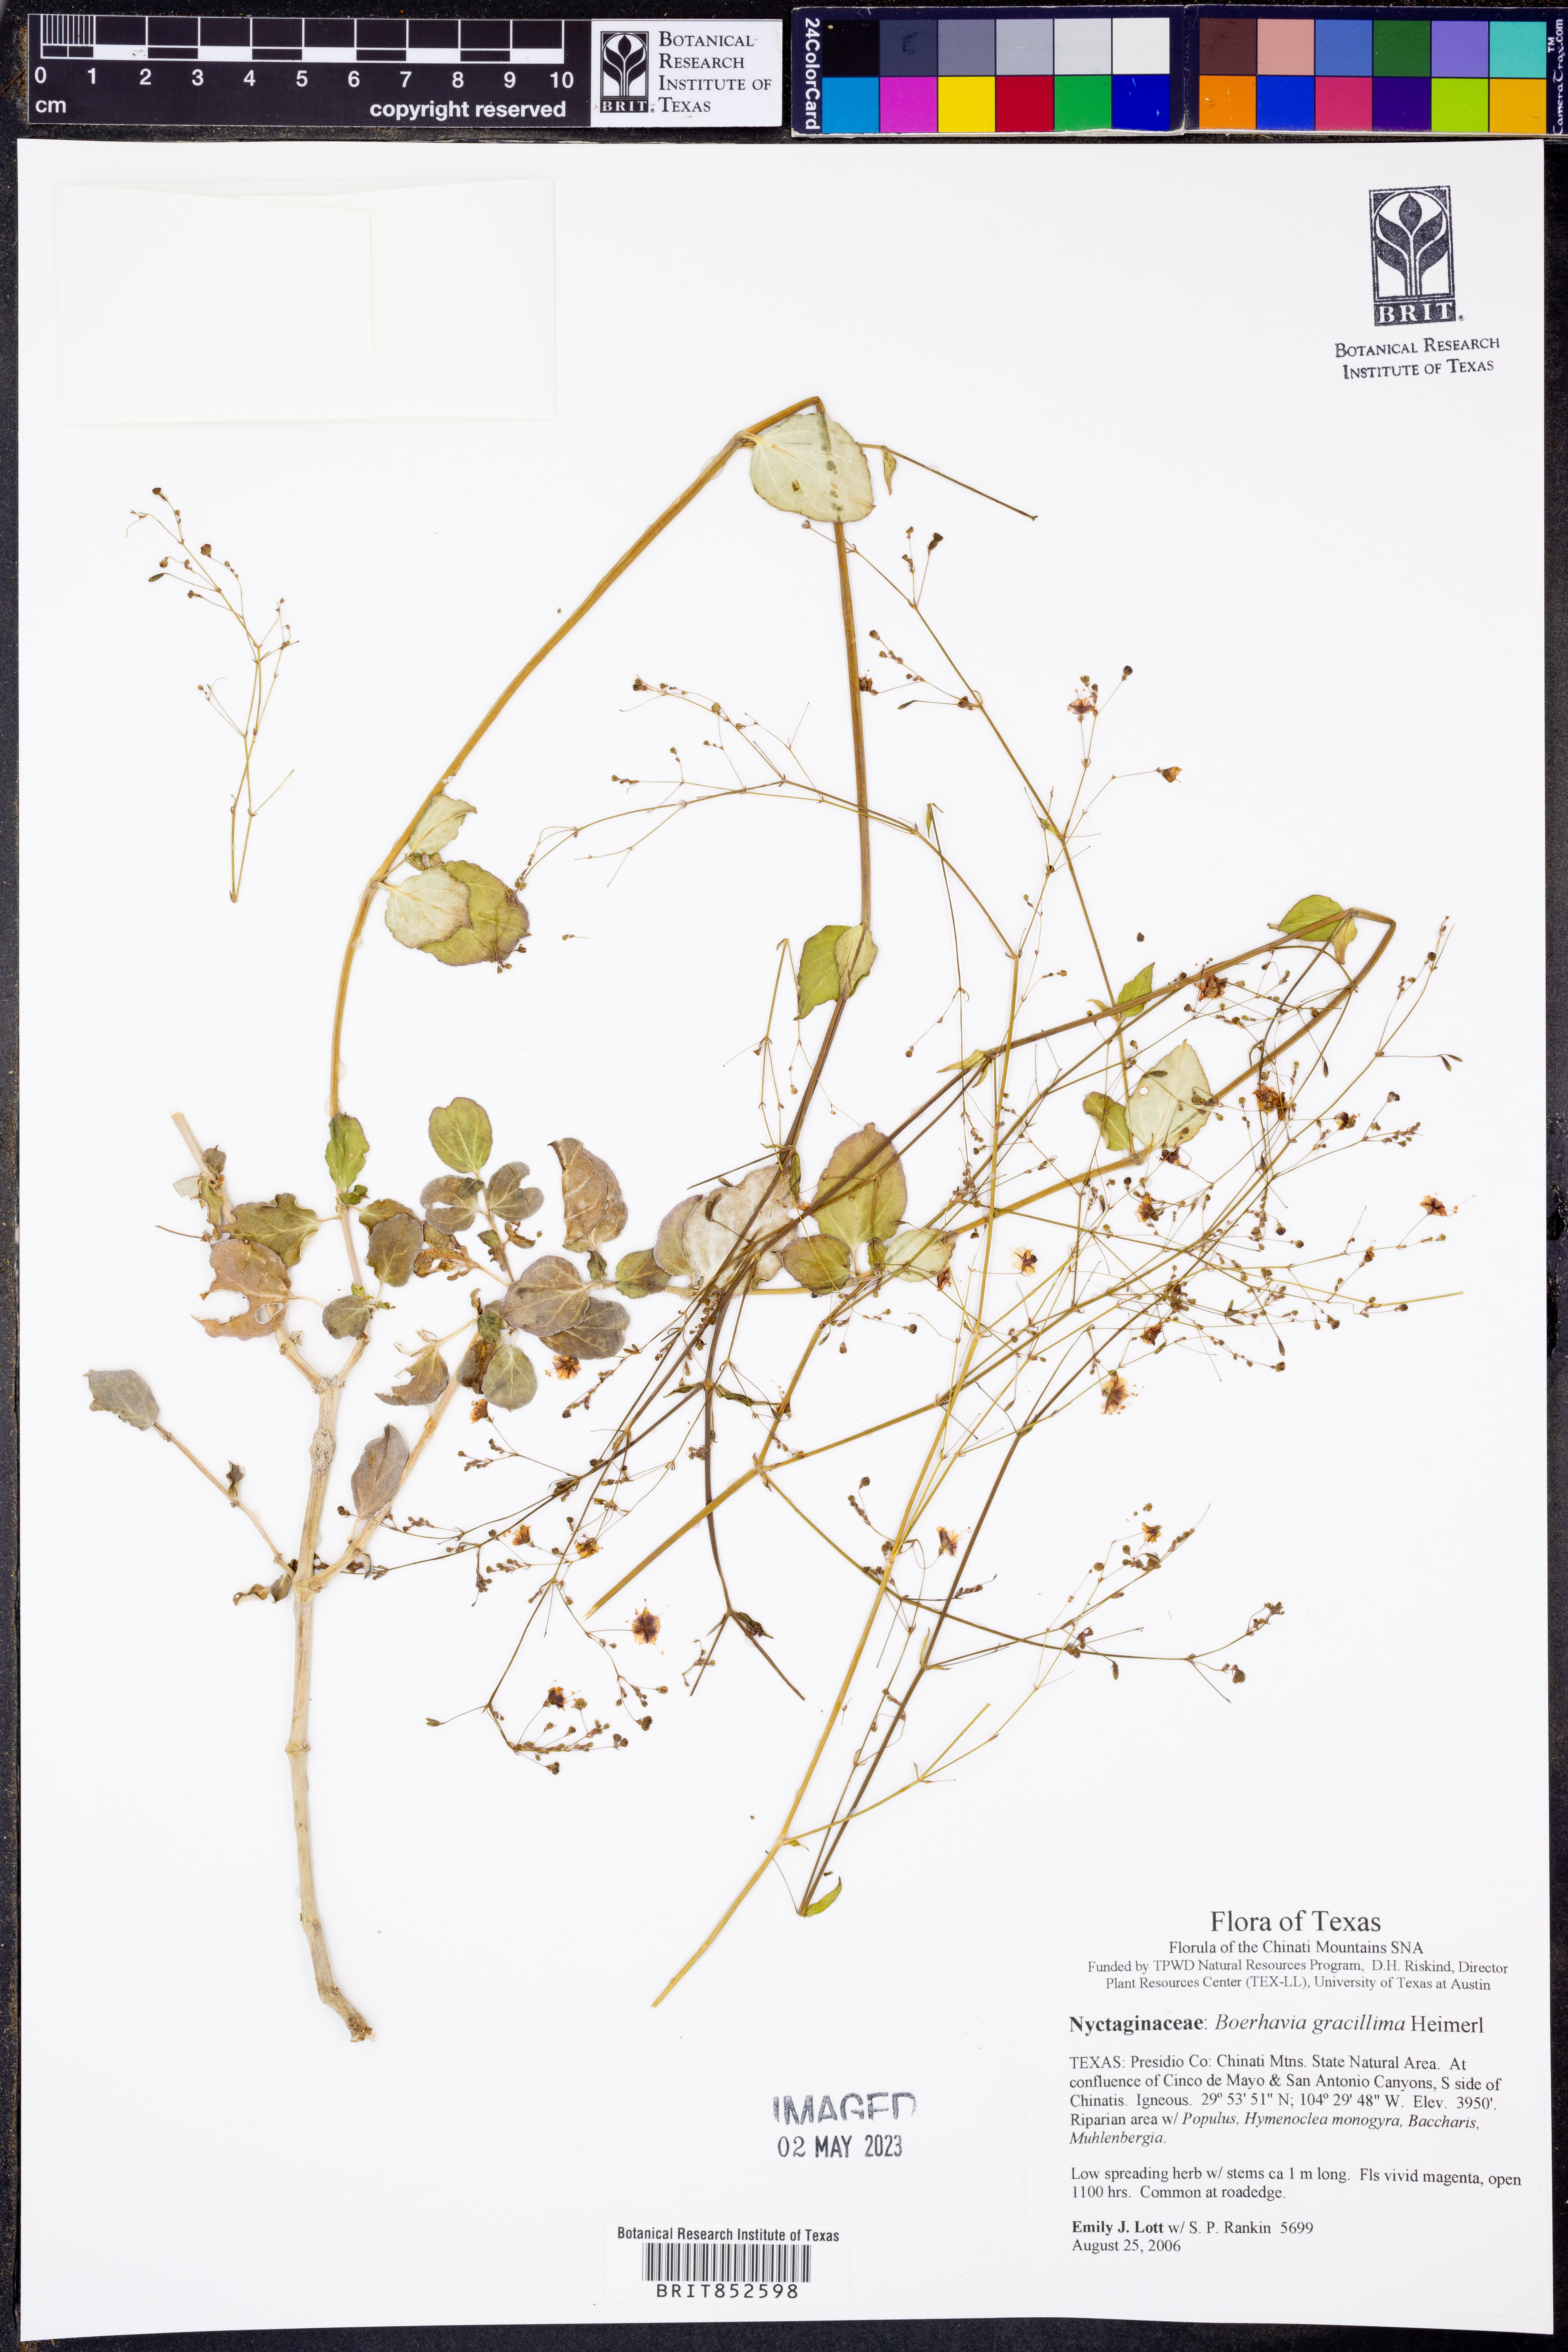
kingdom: Plantae
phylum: Tracheophyta
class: Magnoliopsida
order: Caryophyllales
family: Nyctaginaceae
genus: Boerhavia
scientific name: Boerhavia gracillima
